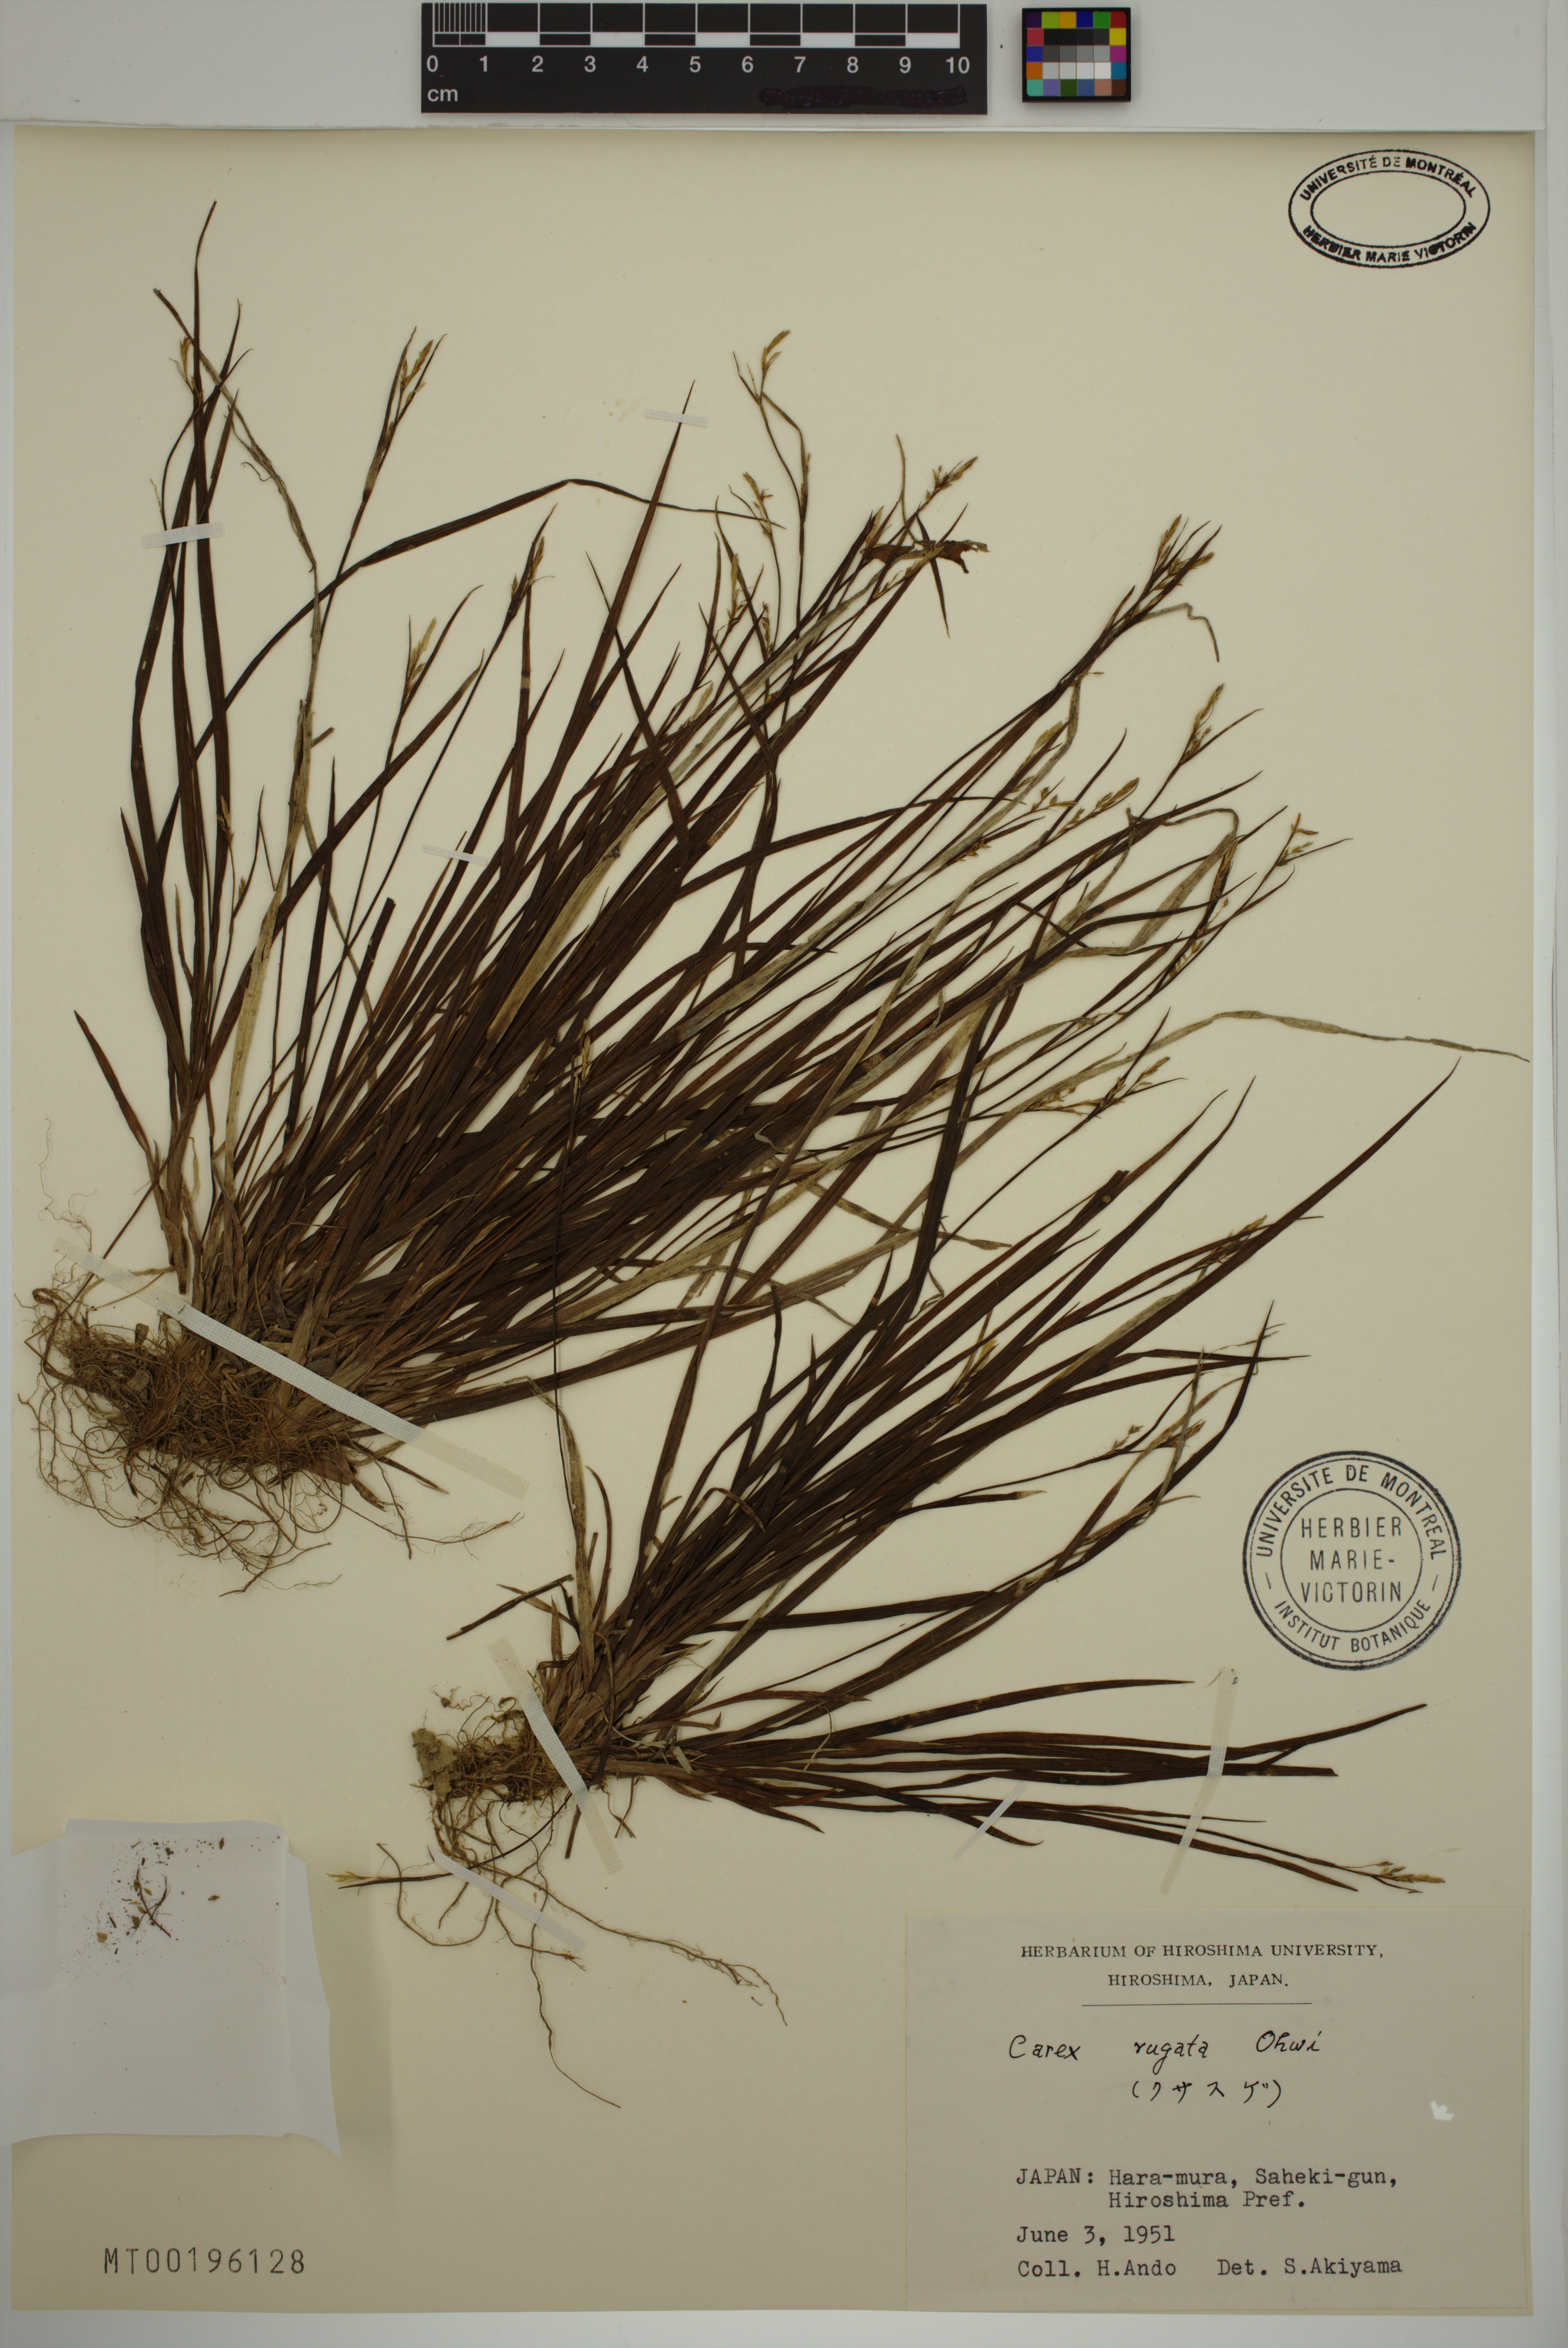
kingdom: Plantae
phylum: Tracheophyta
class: Liliopsida
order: Poales
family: Cyperaceae
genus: Carex
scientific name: Carex rugata
